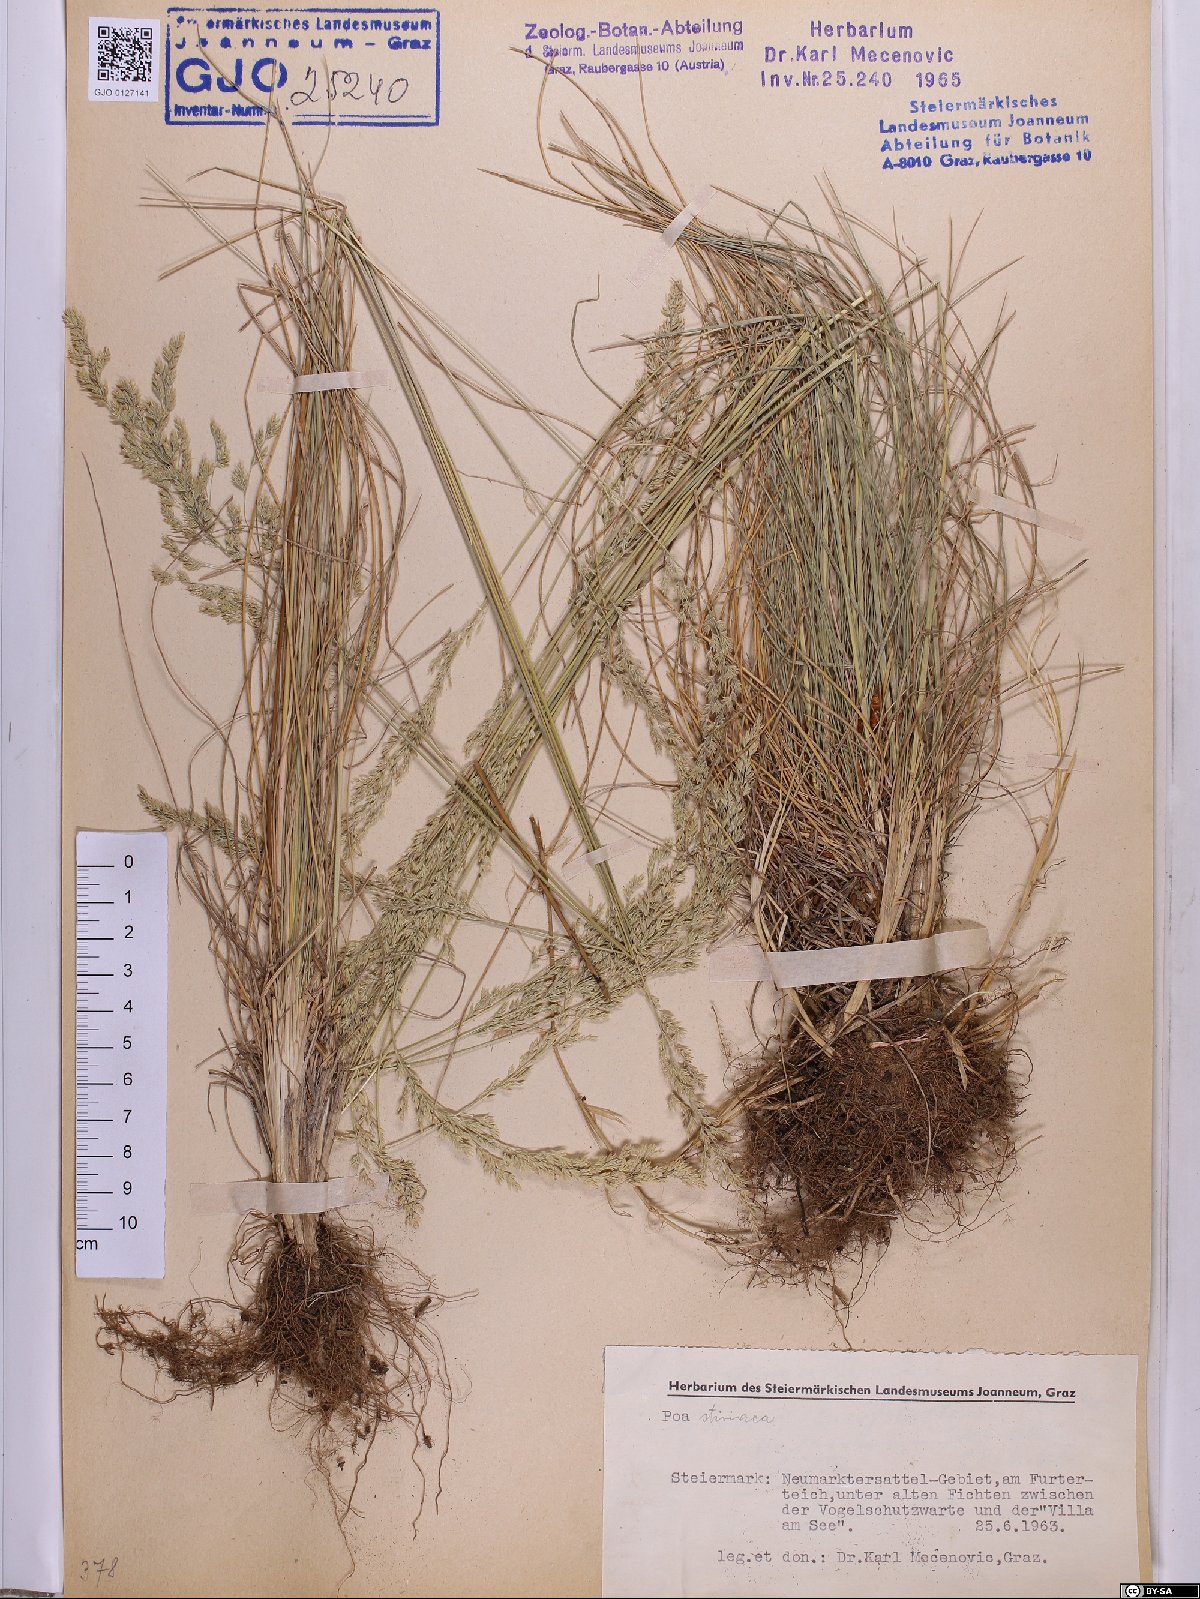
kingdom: Plantae
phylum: Tracheophyta
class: Liliopsida
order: Poales
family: Poaceae
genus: Poa
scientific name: Poa stiriaca
